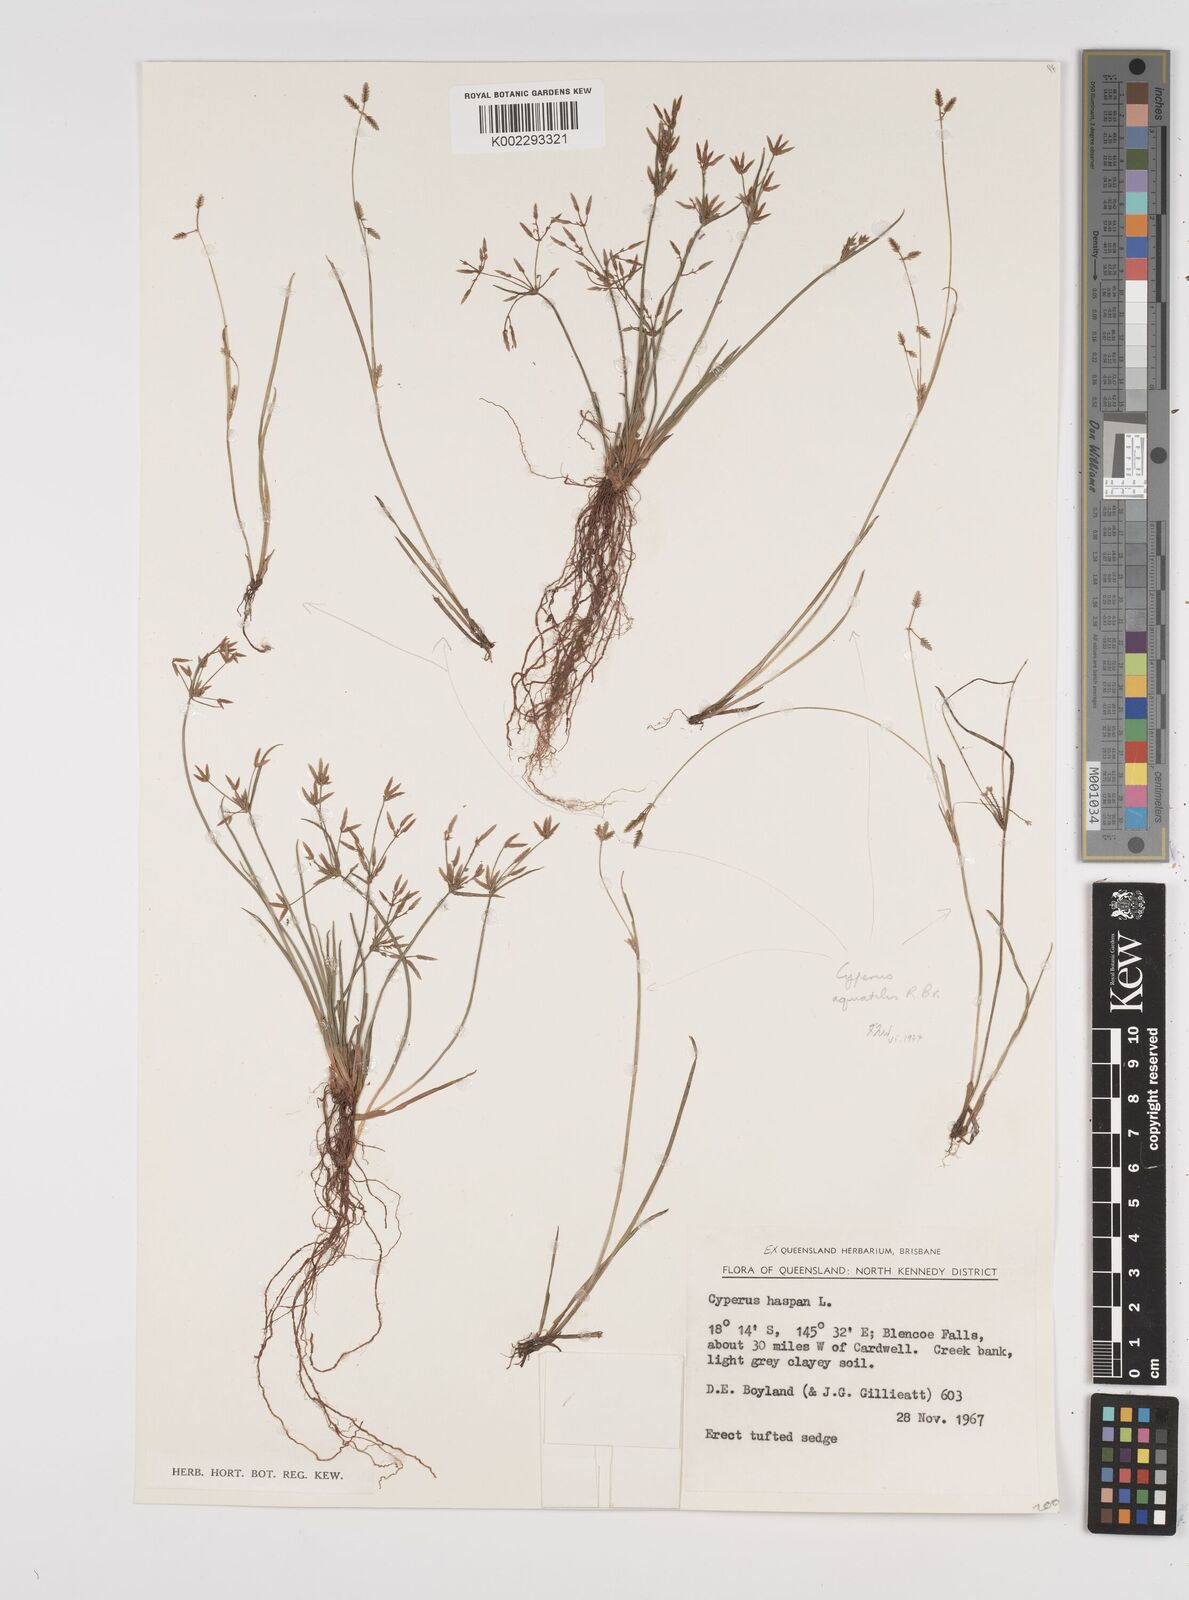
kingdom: Plantae
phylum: Tracheophyta
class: Liliopsida
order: Poales
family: Cyperaceae
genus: Cyperus
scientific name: Cyperus haspan
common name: Haspan flatsedge
